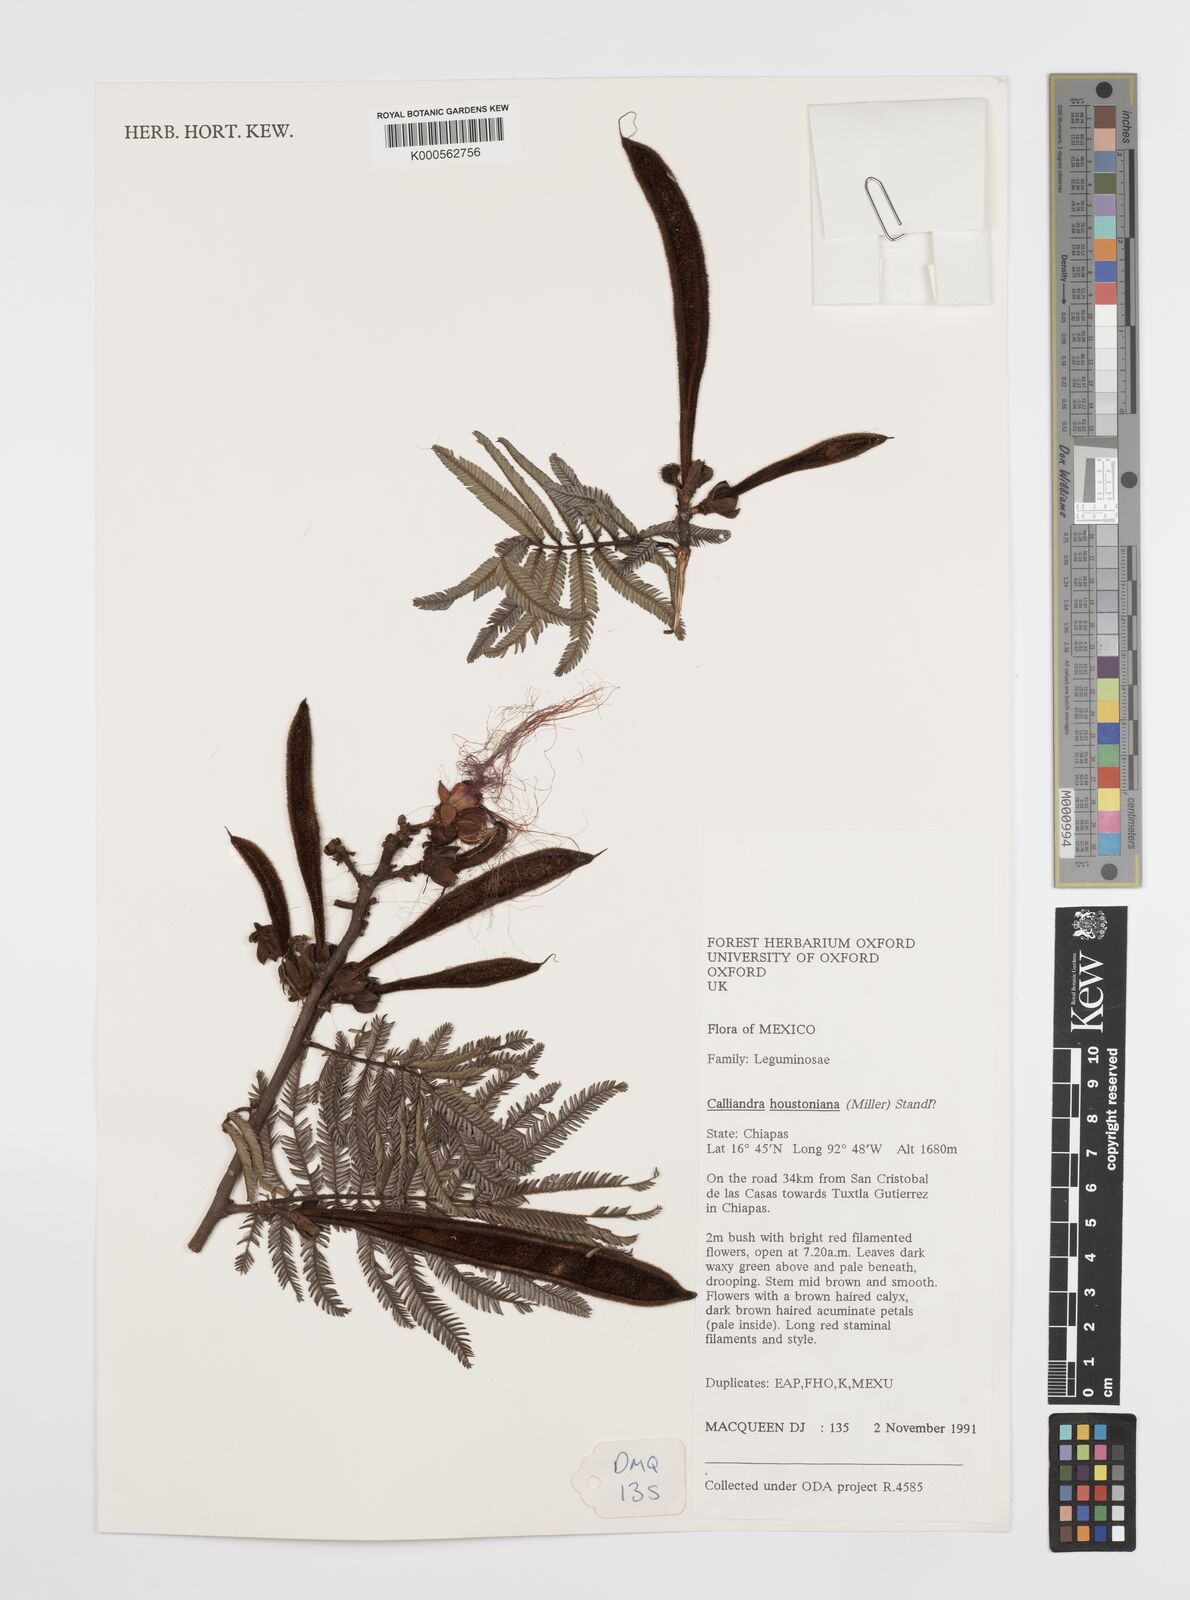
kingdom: Plantae
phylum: Tracheophyta
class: Magnoliopsida
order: Fabales
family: Fabaceae
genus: Calliandra
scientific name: Calliandra houstoniana
